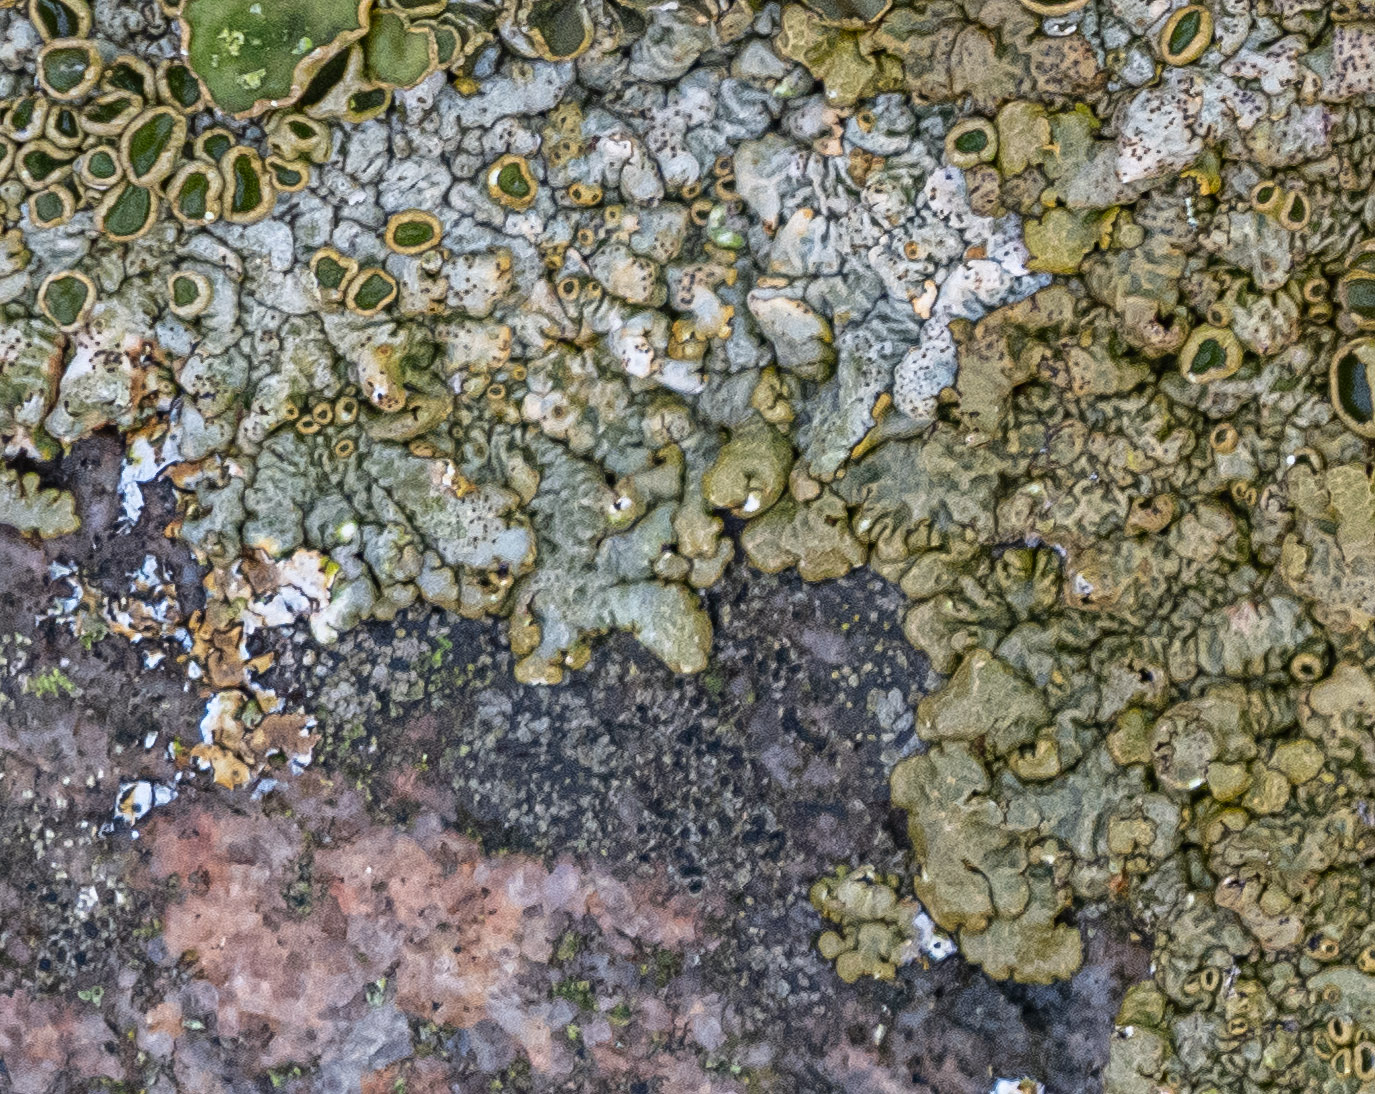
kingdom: Fungi
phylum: Ascomycota
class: Lecanoromycetes
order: Lecanorales
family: Parmeliaceae
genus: Xanthoparmelia
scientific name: Xanthoparmelia pulla
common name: mørkebrun skållav
